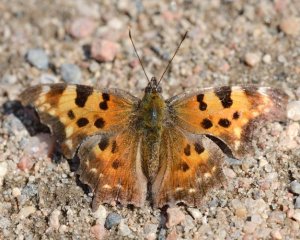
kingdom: Animalia
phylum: Arthropoda
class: Insecta
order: Lepidoptera
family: Nymphalidae
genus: Polygonia
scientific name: Polygonia faunus
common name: Green Comma
